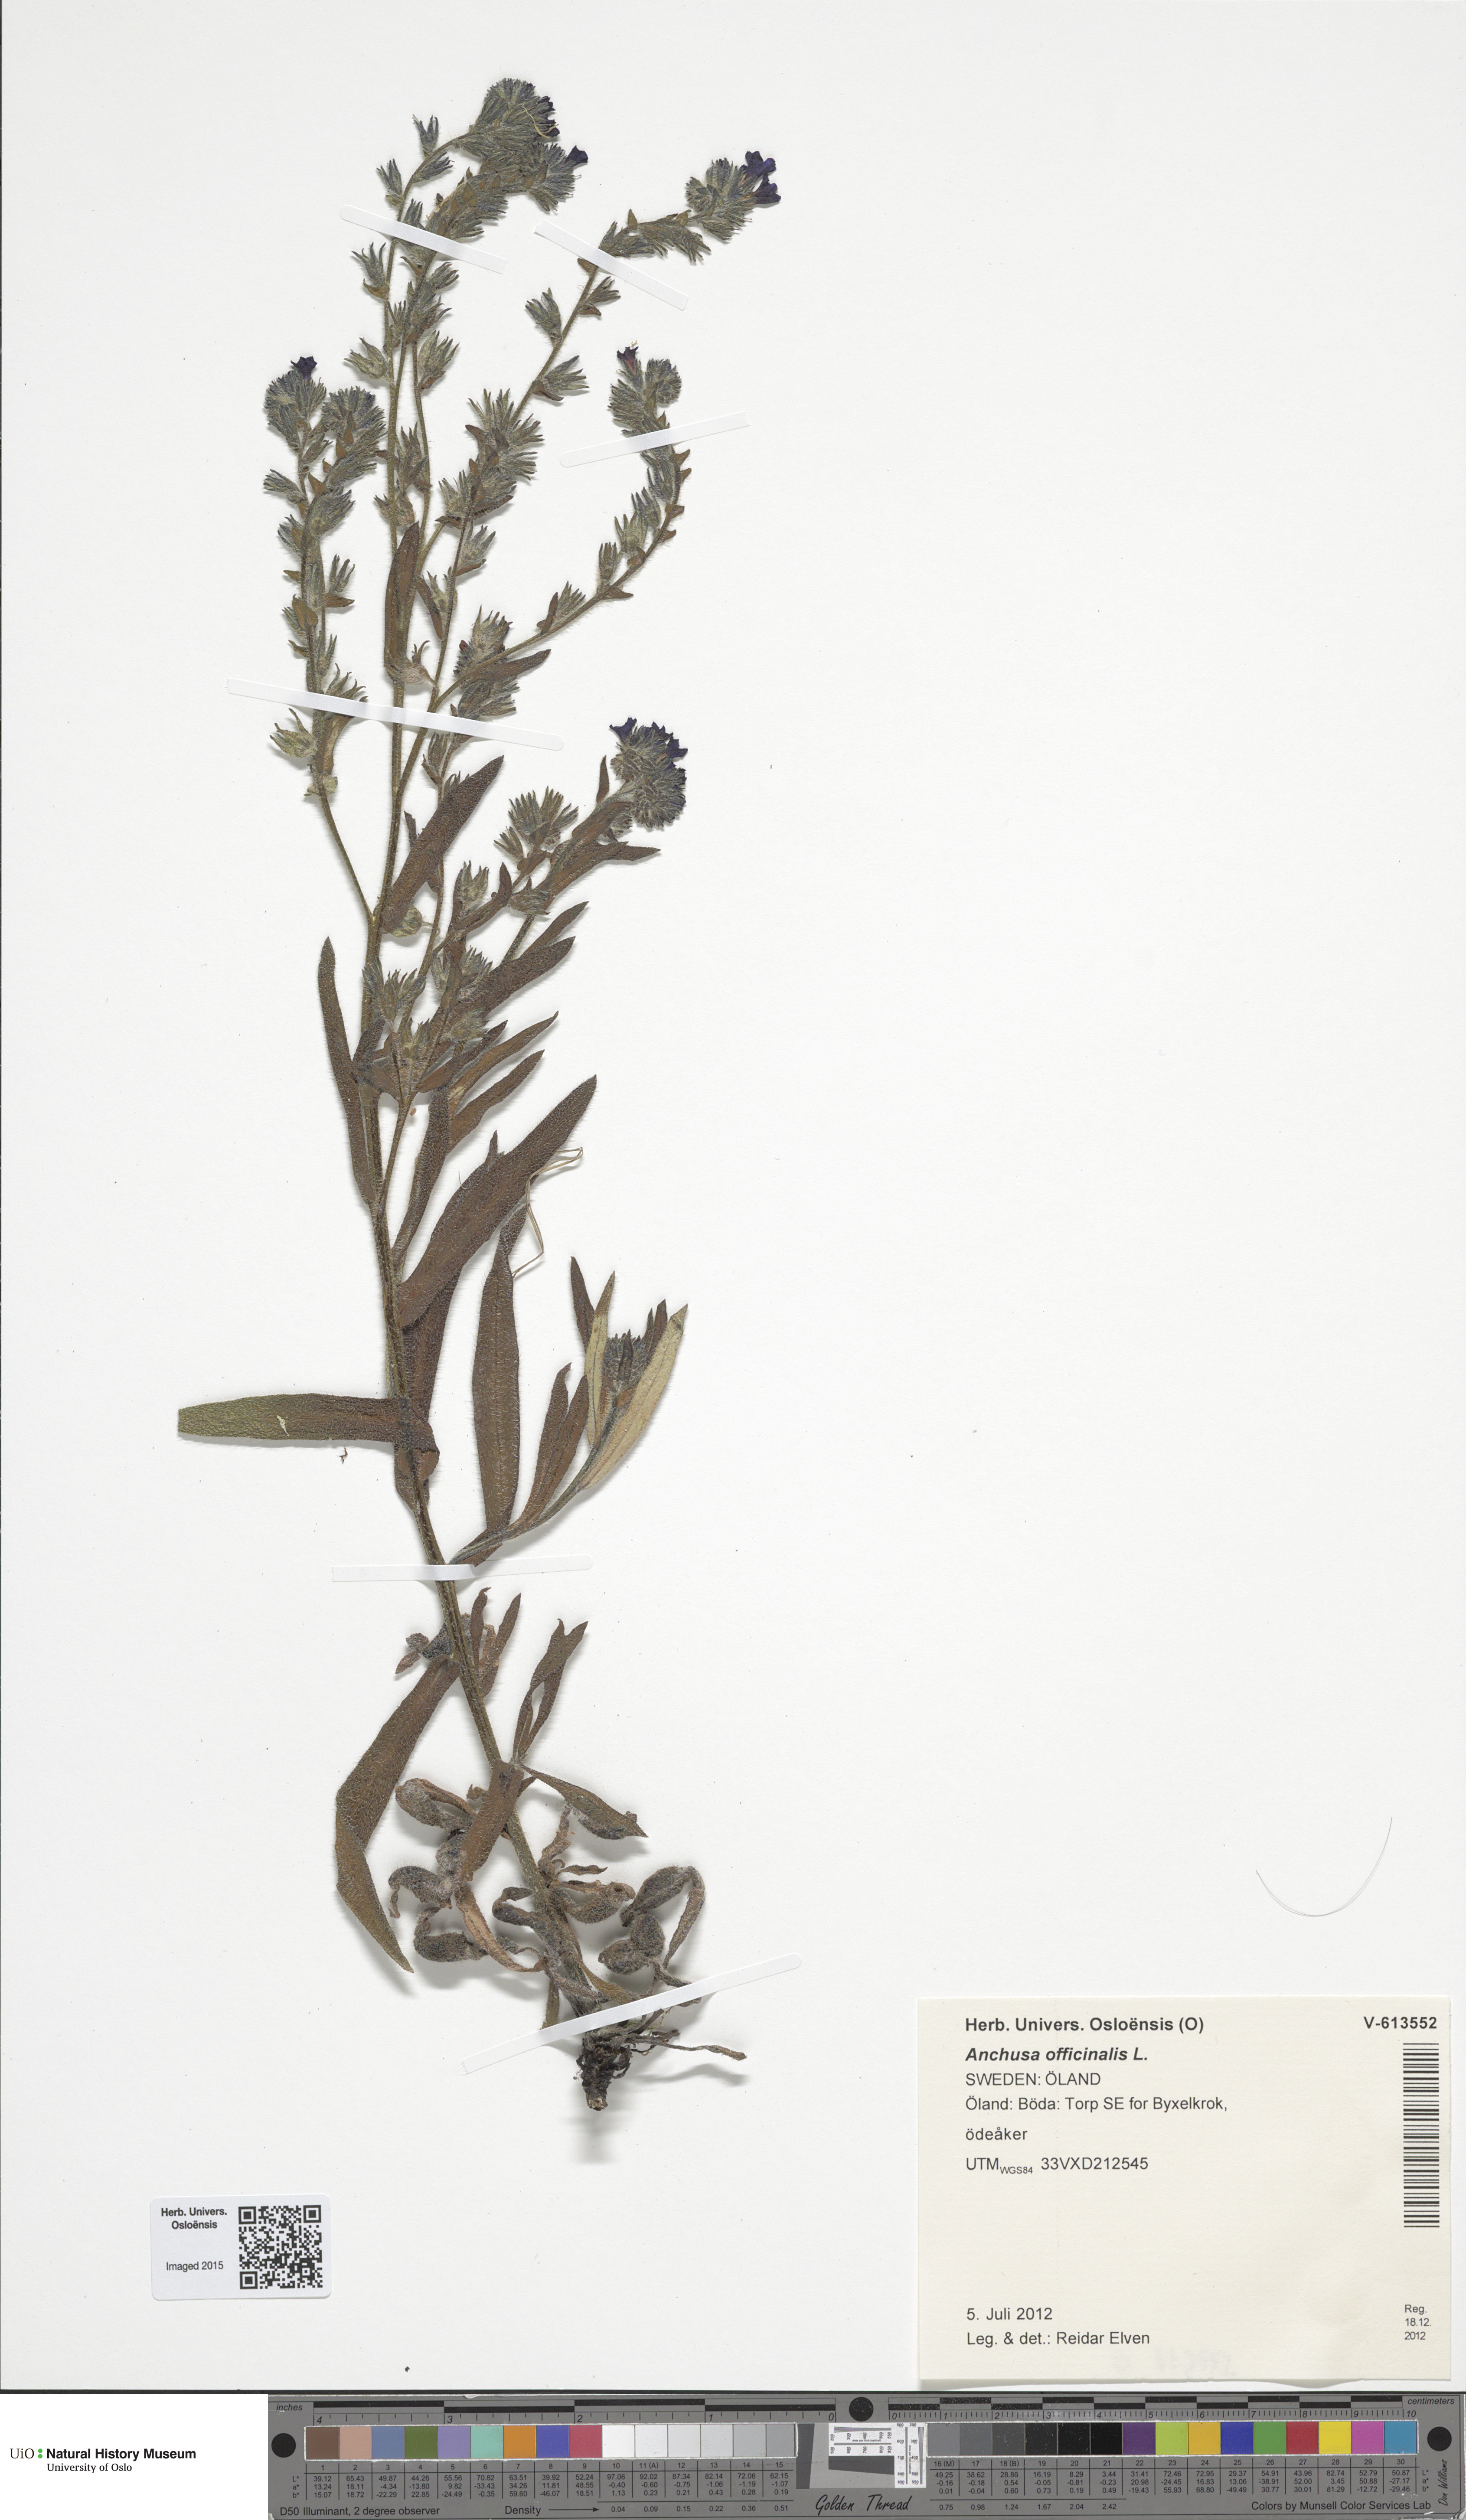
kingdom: Plantae
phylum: Tracheophyta
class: Magnoliopsida
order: Boraginales
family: Boraginaceae
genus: Anchusa
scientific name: Anchusa officinalis
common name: Alkanet
